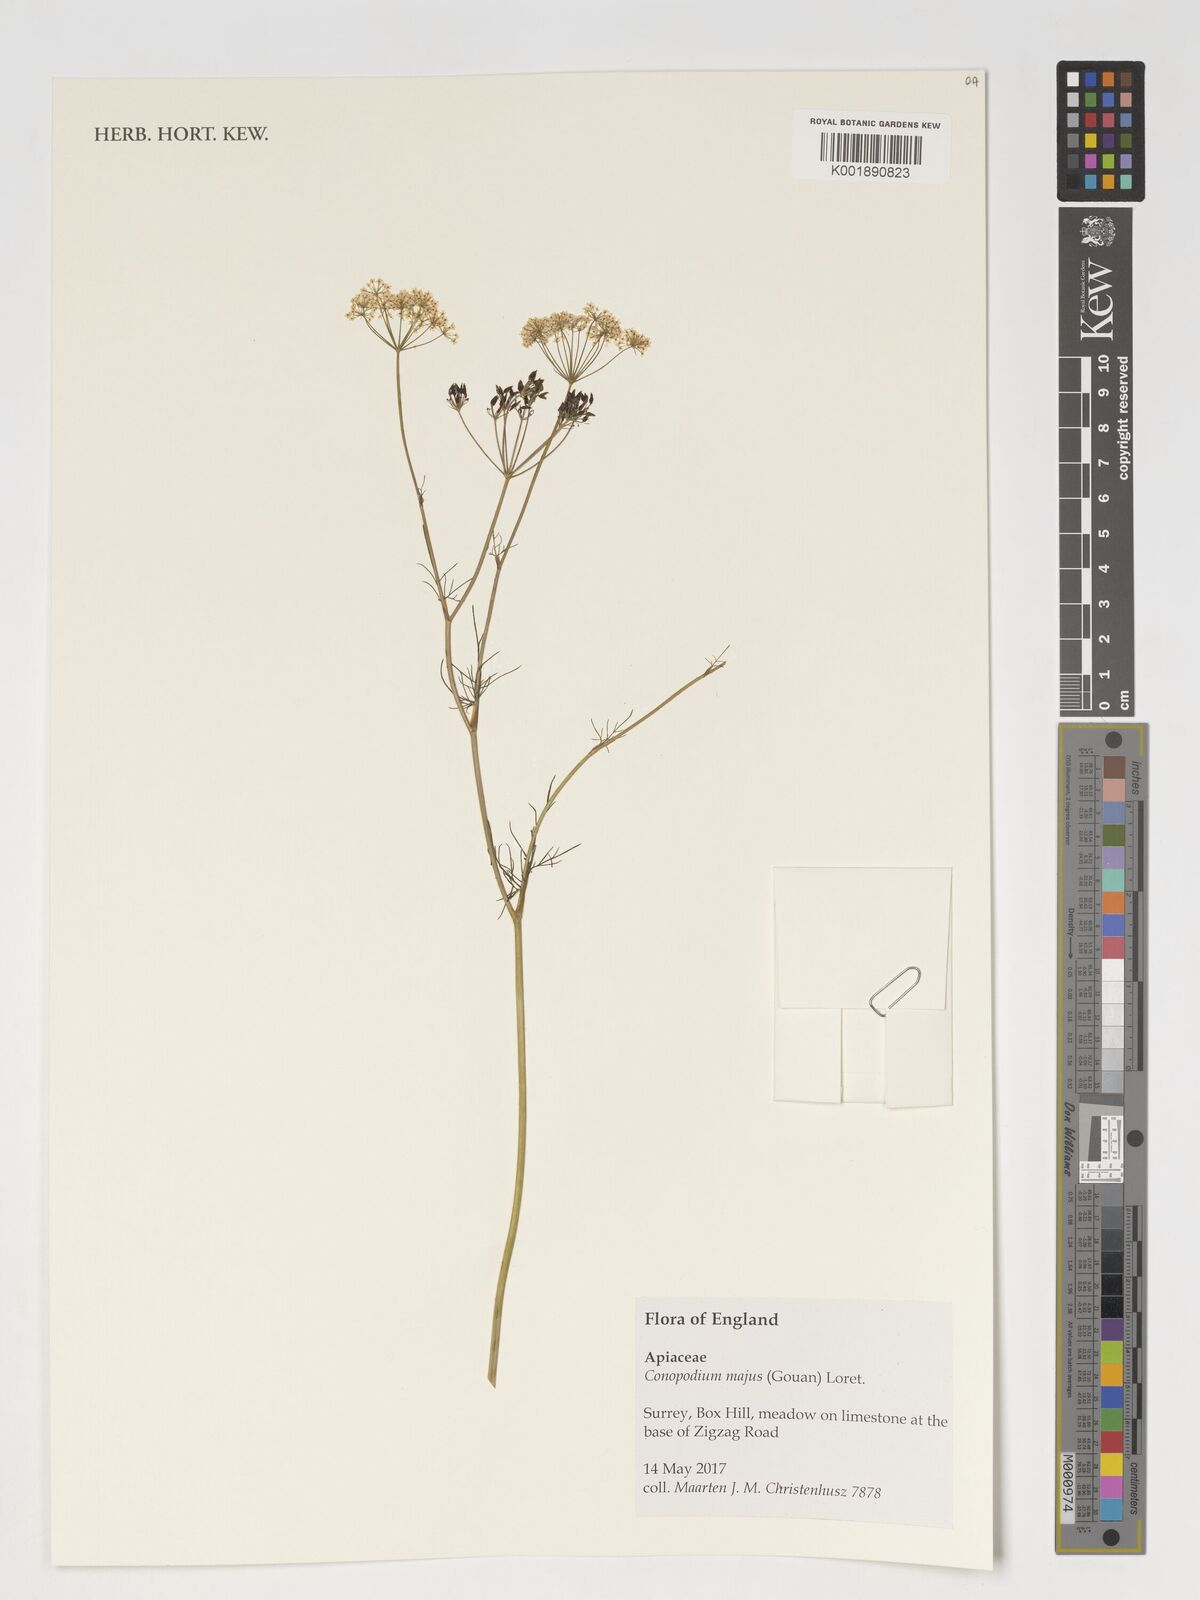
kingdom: Plantae
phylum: Tracheophyta
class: Magnoliopsida
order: Apiales
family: Apiaceae
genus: Conopodium
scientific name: Conopodium majus
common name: Pignut
